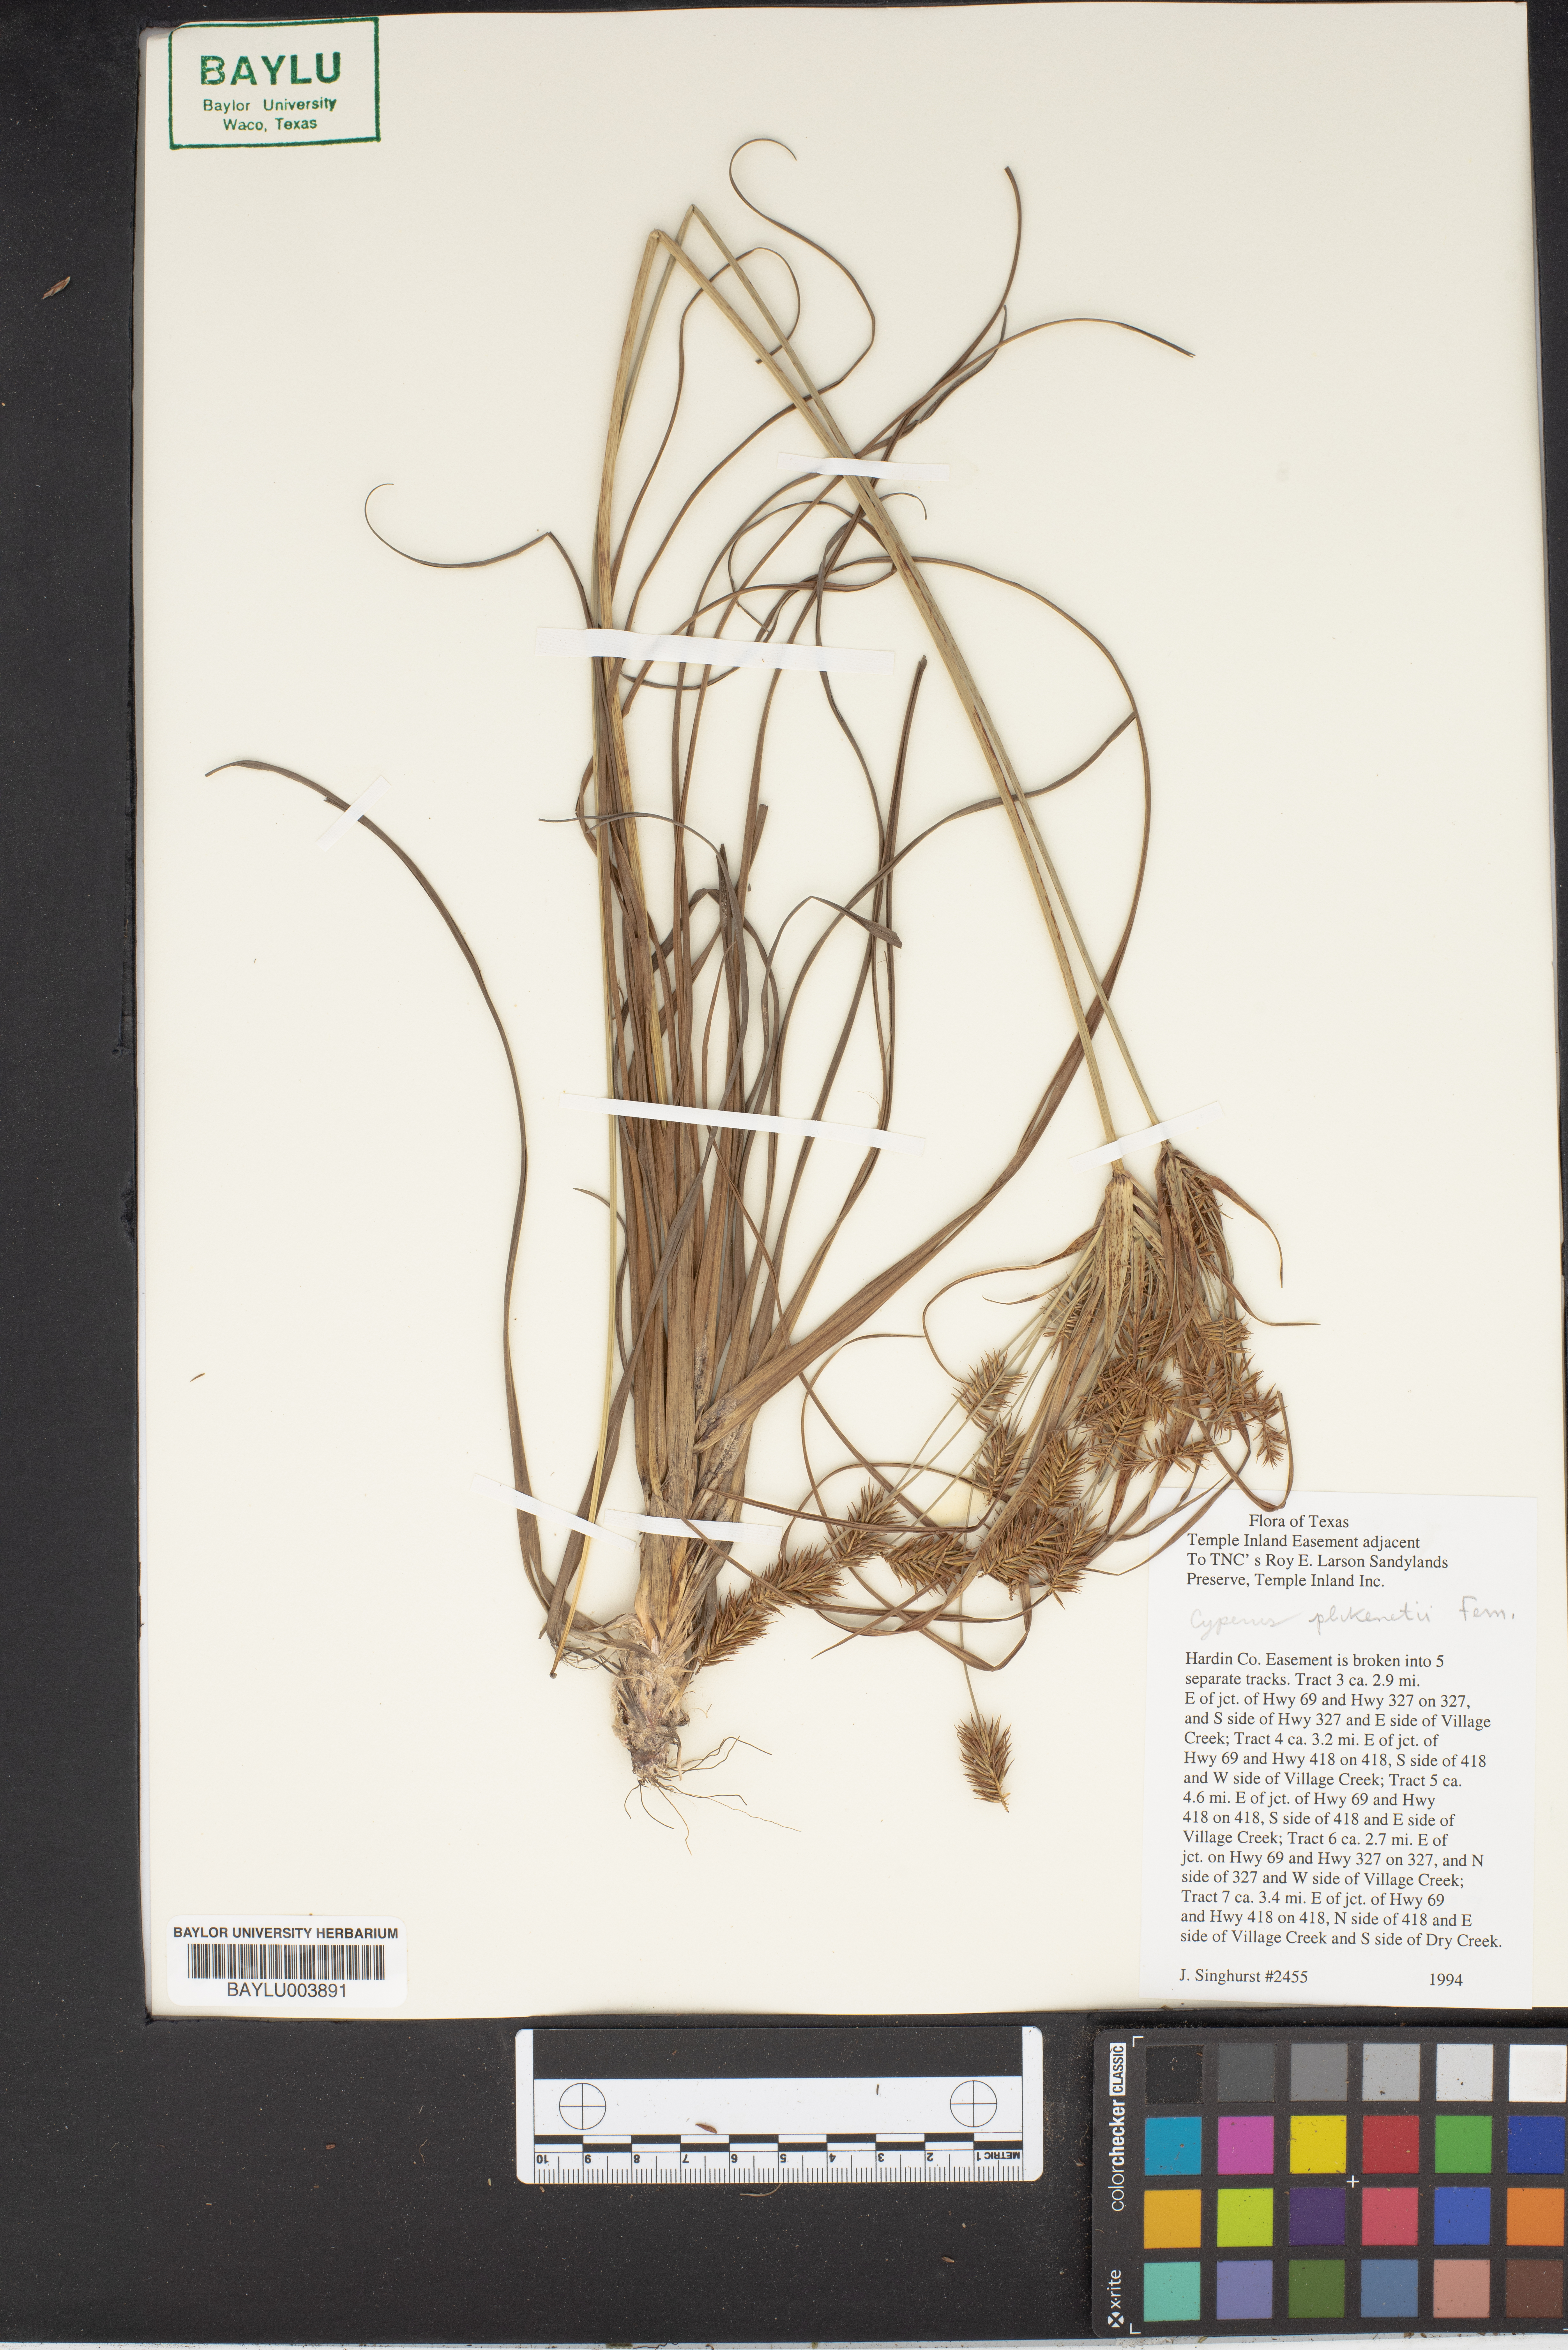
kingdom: Plantae
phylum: Tracheophyta
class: Liliopsida
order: Poales
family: Cyperaceae
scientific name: Cyperaceae
